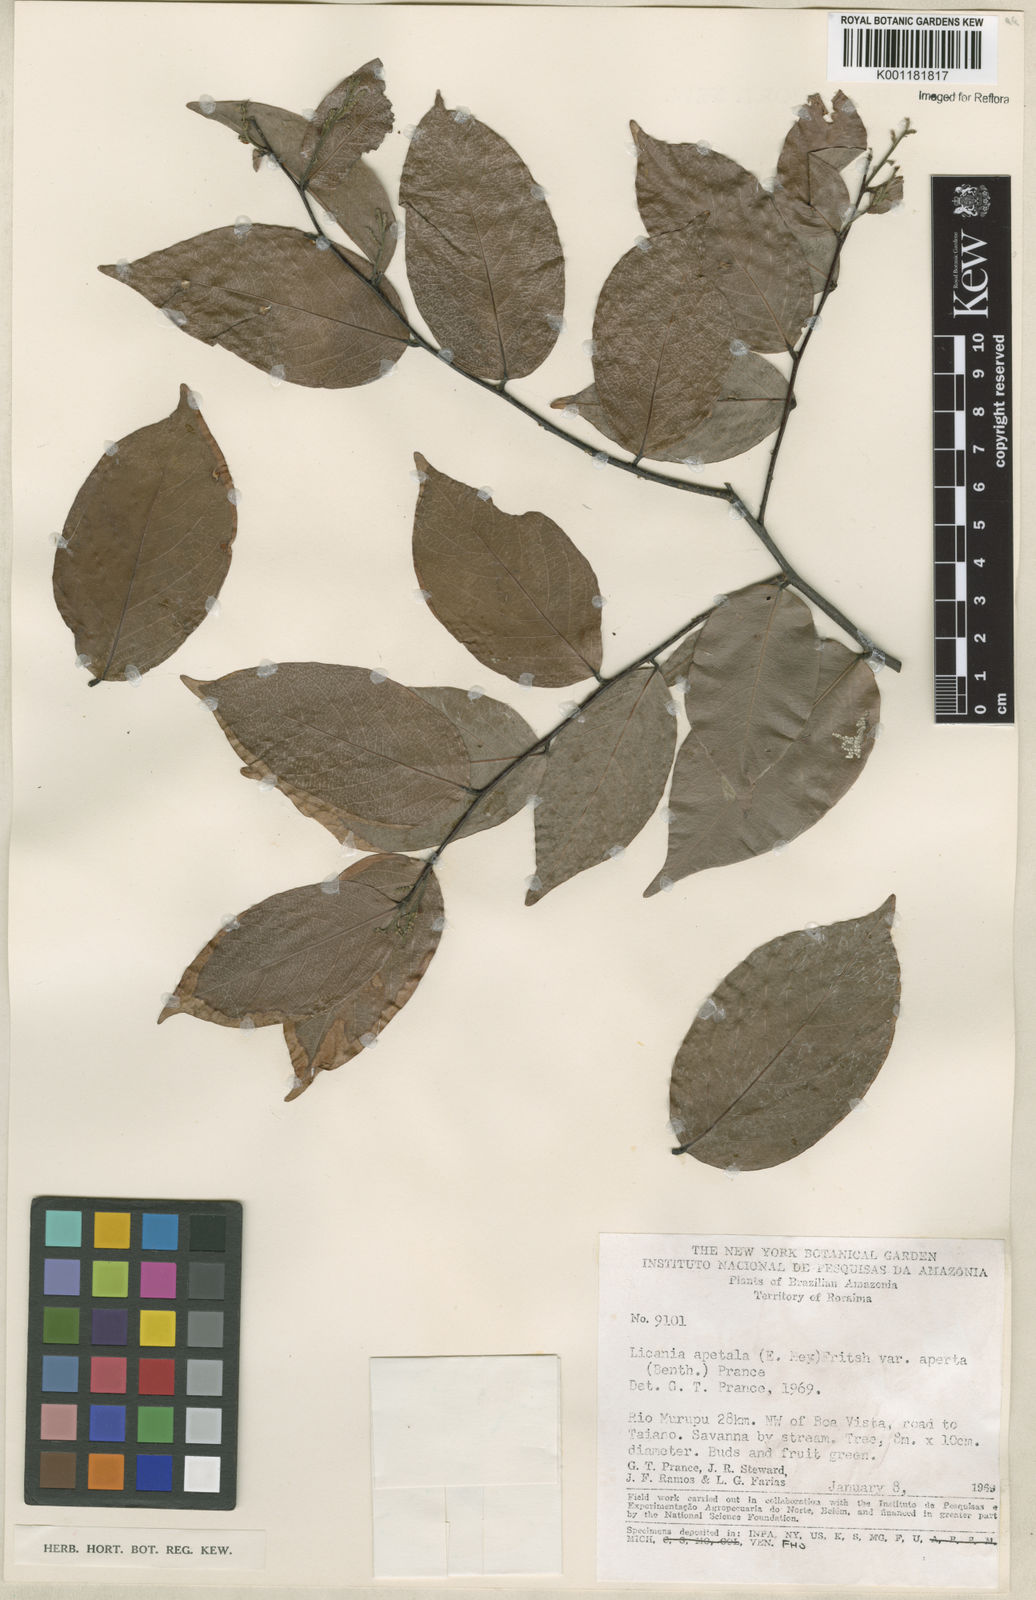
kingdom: Plantae
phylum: Tracheophyta
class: Magnoliopsida
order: Malpighiales
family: Chrysobalanaceae
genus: Leptobalanus
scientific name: Leptobalanus apetalus
